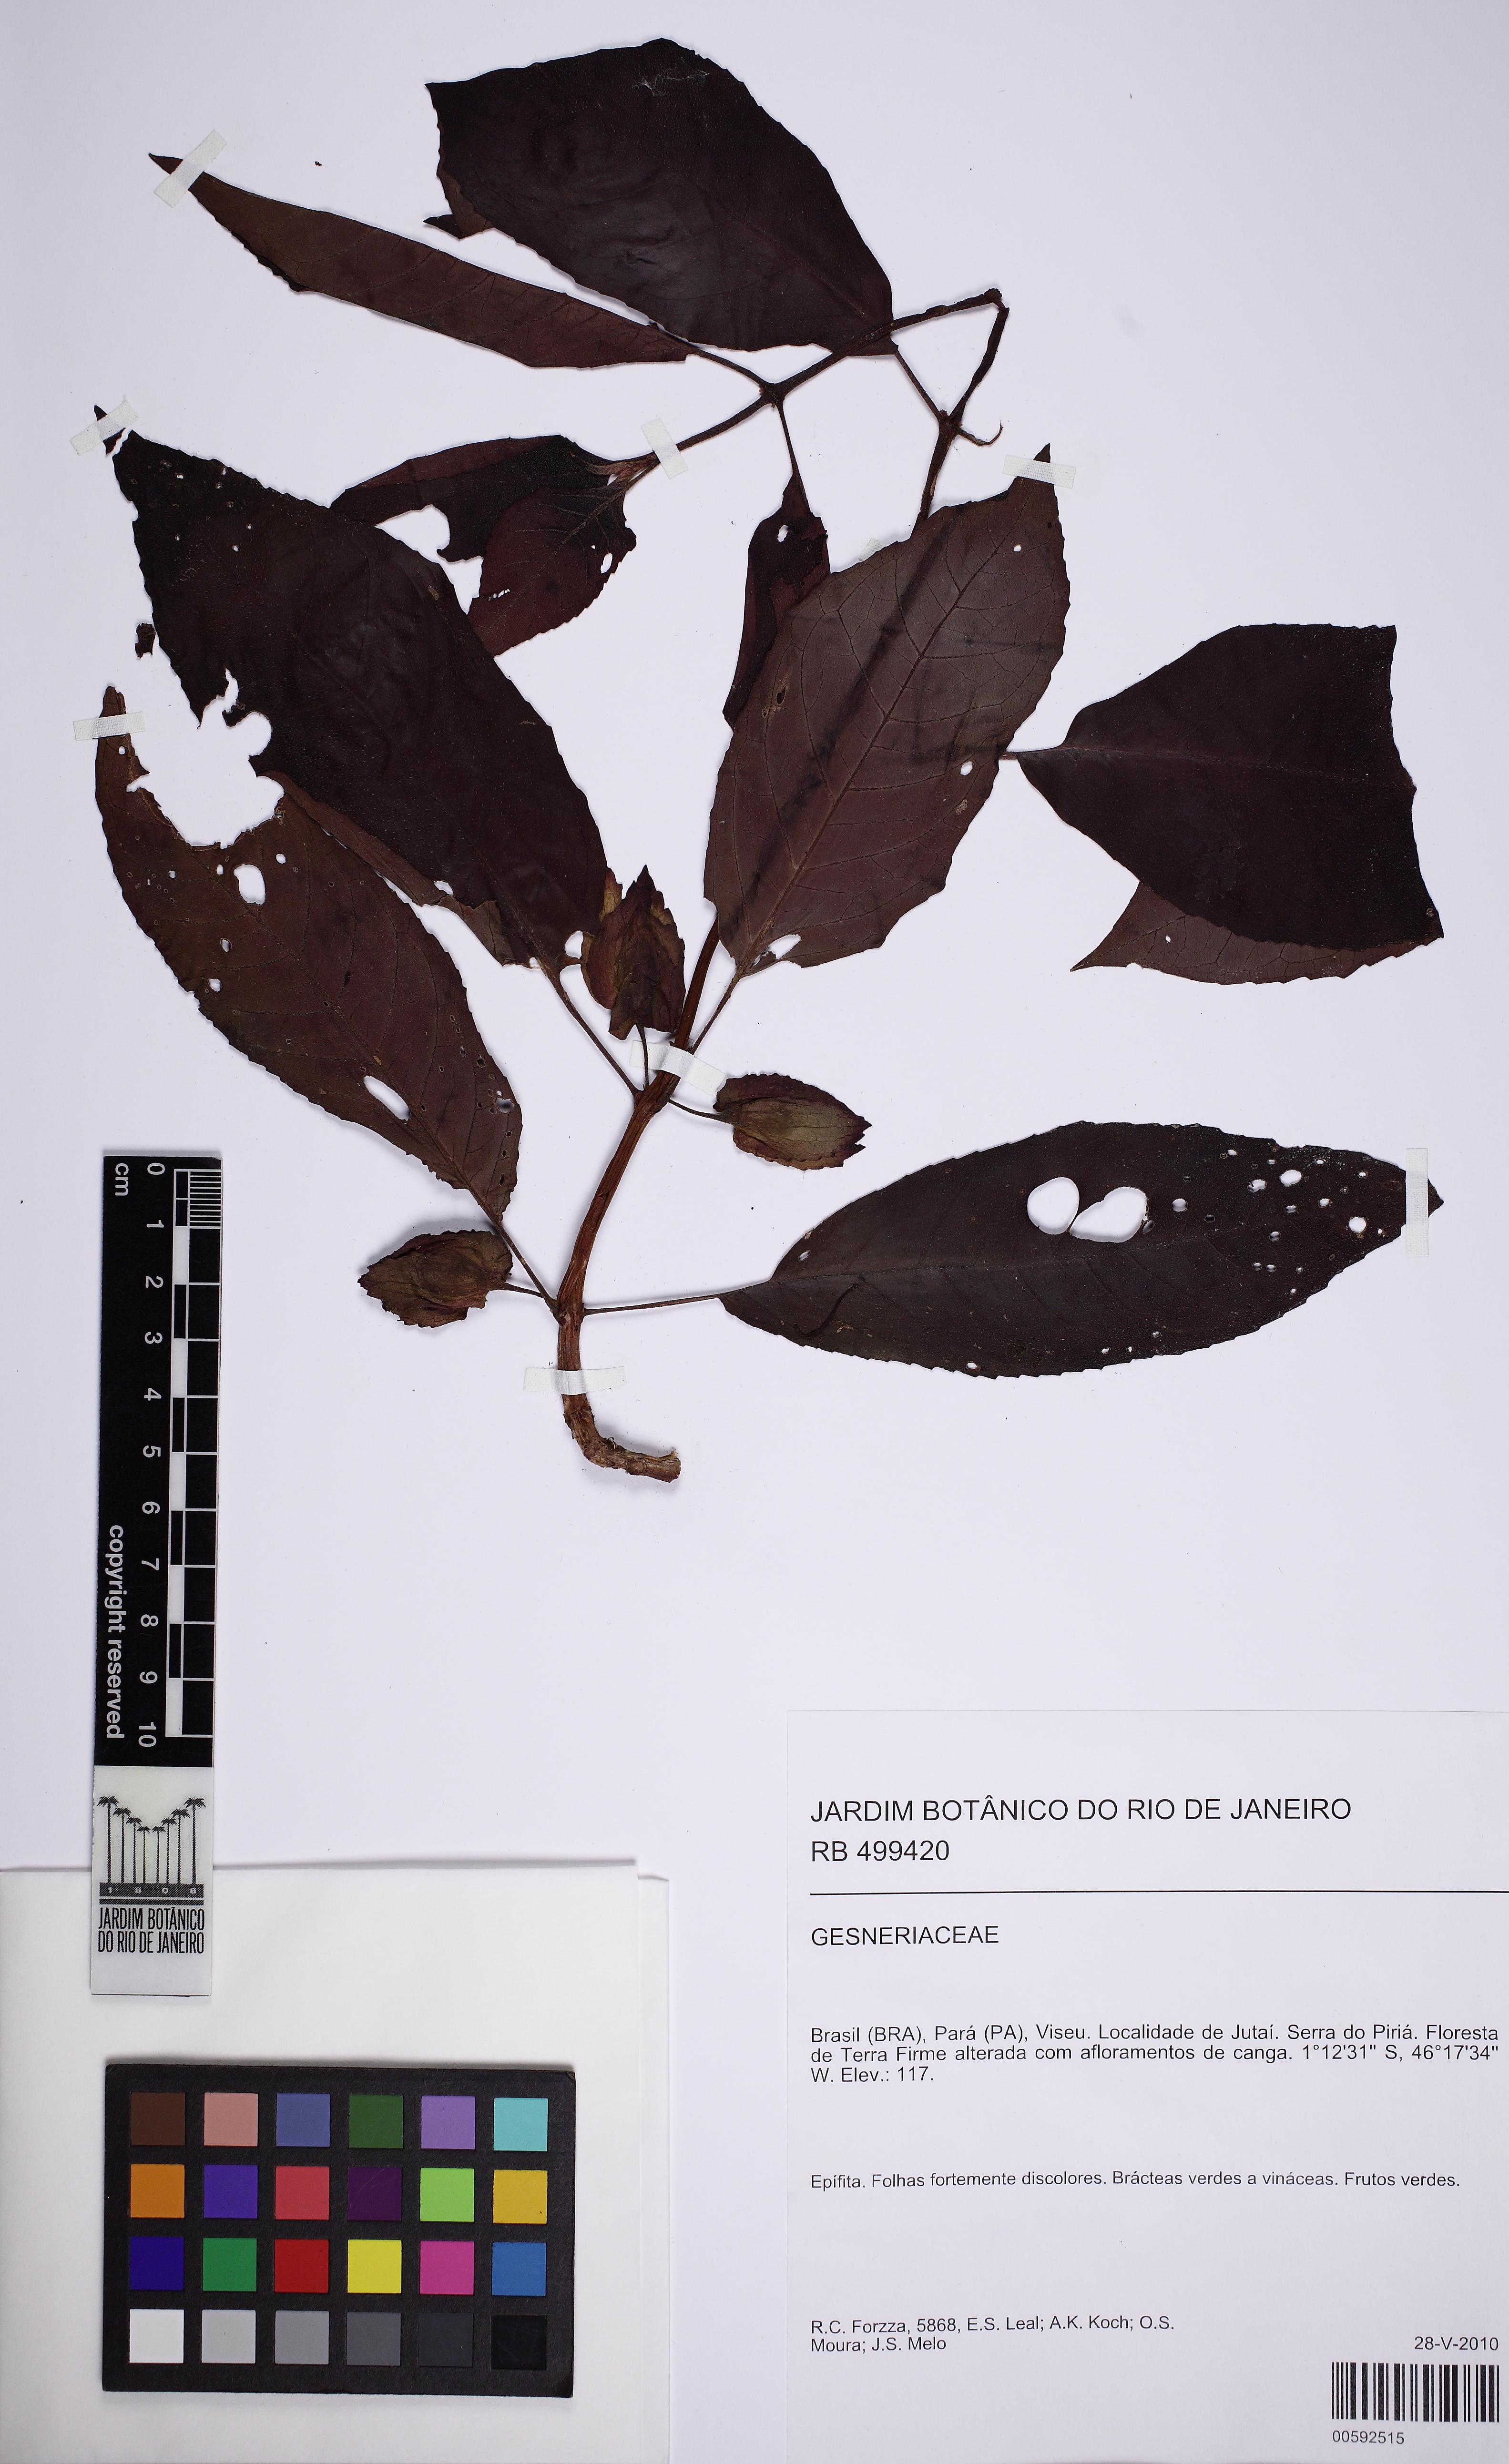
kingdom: Plantae
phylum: Tracheophyta
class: Magnoliopsida
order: Lamiales
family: Gesneriaceae
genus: Drymonia
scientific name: Drymonia
